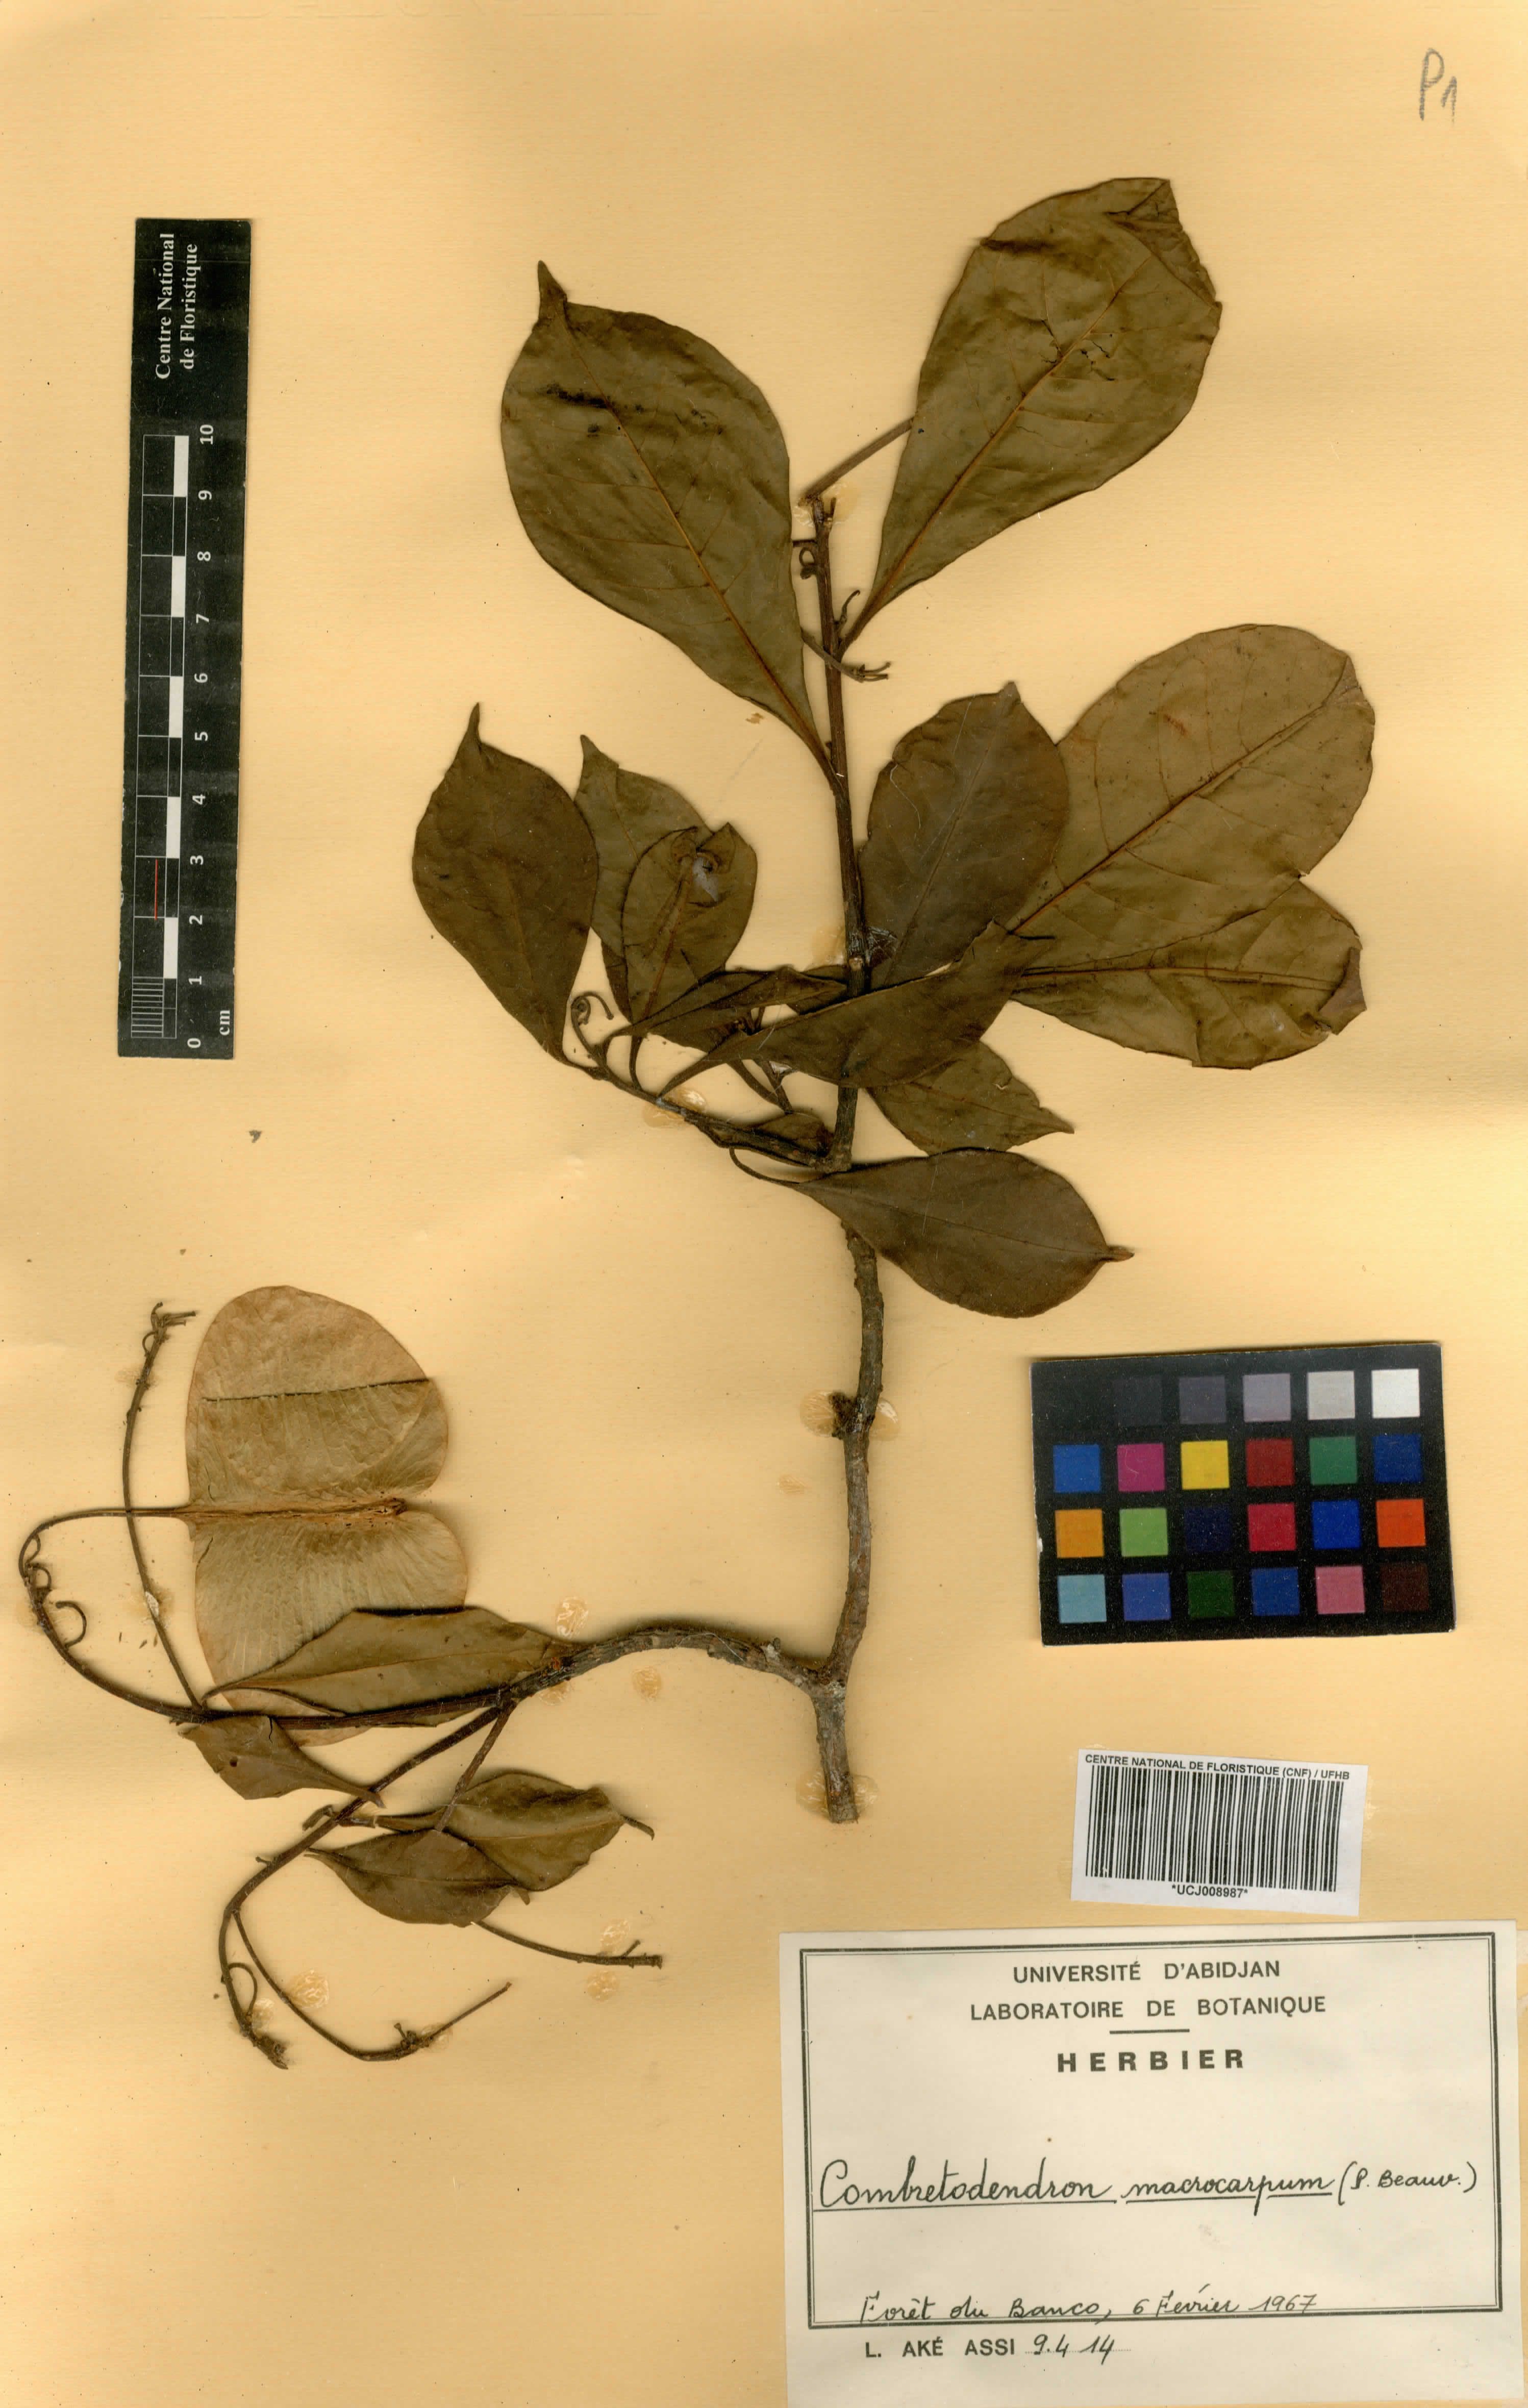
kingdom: Plantae
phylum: Tracheophyta
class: Magnoliopsida
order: Ericales
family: Lecythidaceae
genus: Petersianthus
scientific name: Petersianthus macrocarpus
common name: Essia
